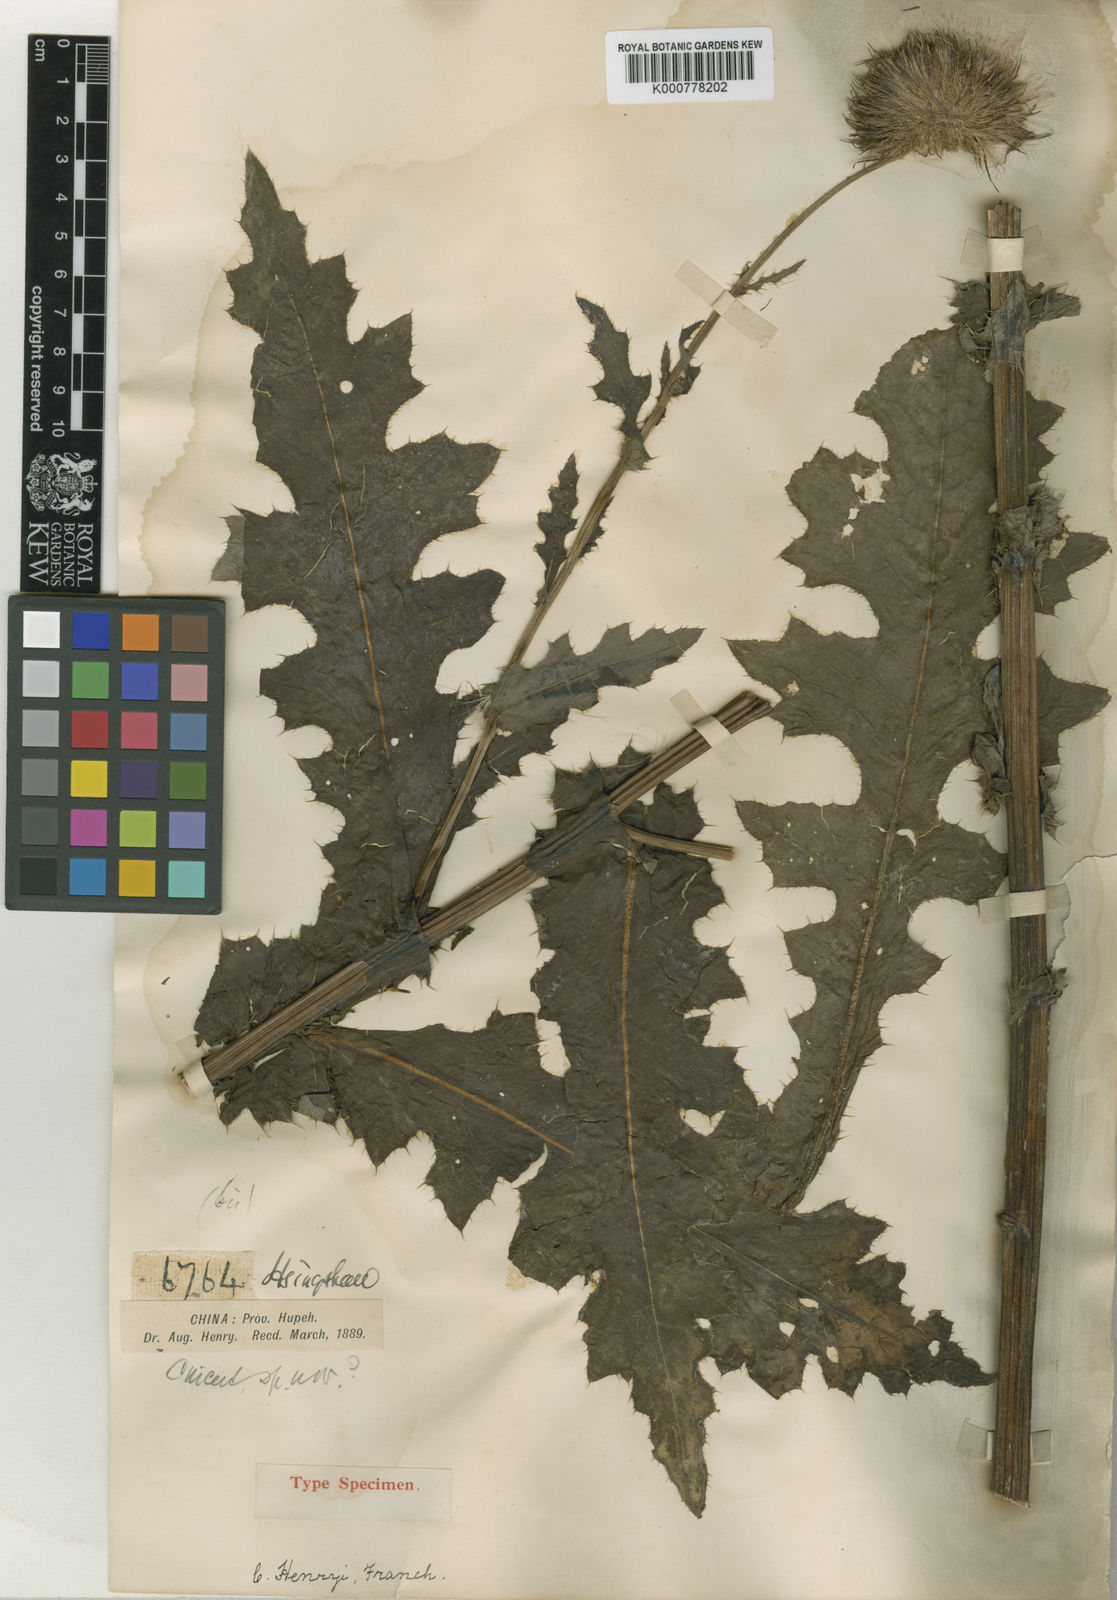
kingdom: Plantae
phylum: Tracheophyta
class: Magnoliopsida
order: Asterales
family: Asteraceae
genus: Cirsium
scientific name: Cirsium henryi
